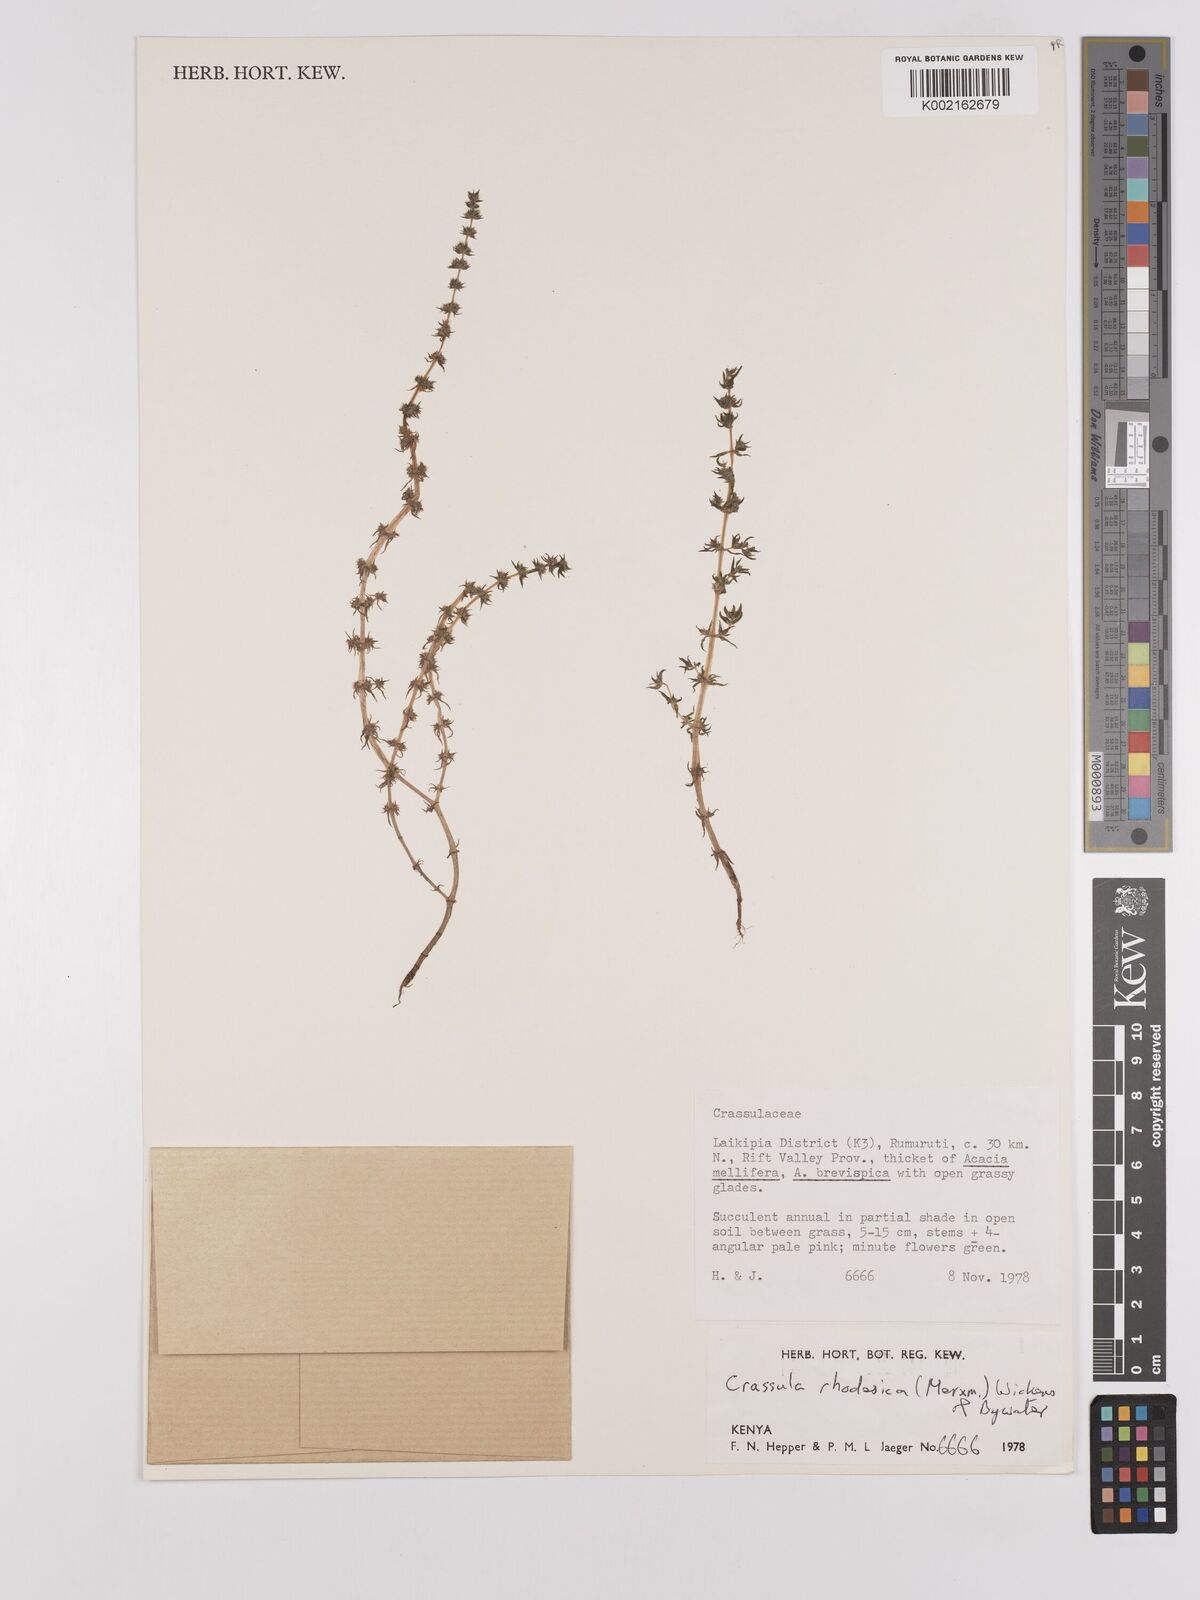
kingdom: Plantae
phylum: Tracheophyta
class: Magnoliopsida
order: Saxifragales
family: Crassulaceae
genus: Crassula
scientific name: Crassula rhodesica
